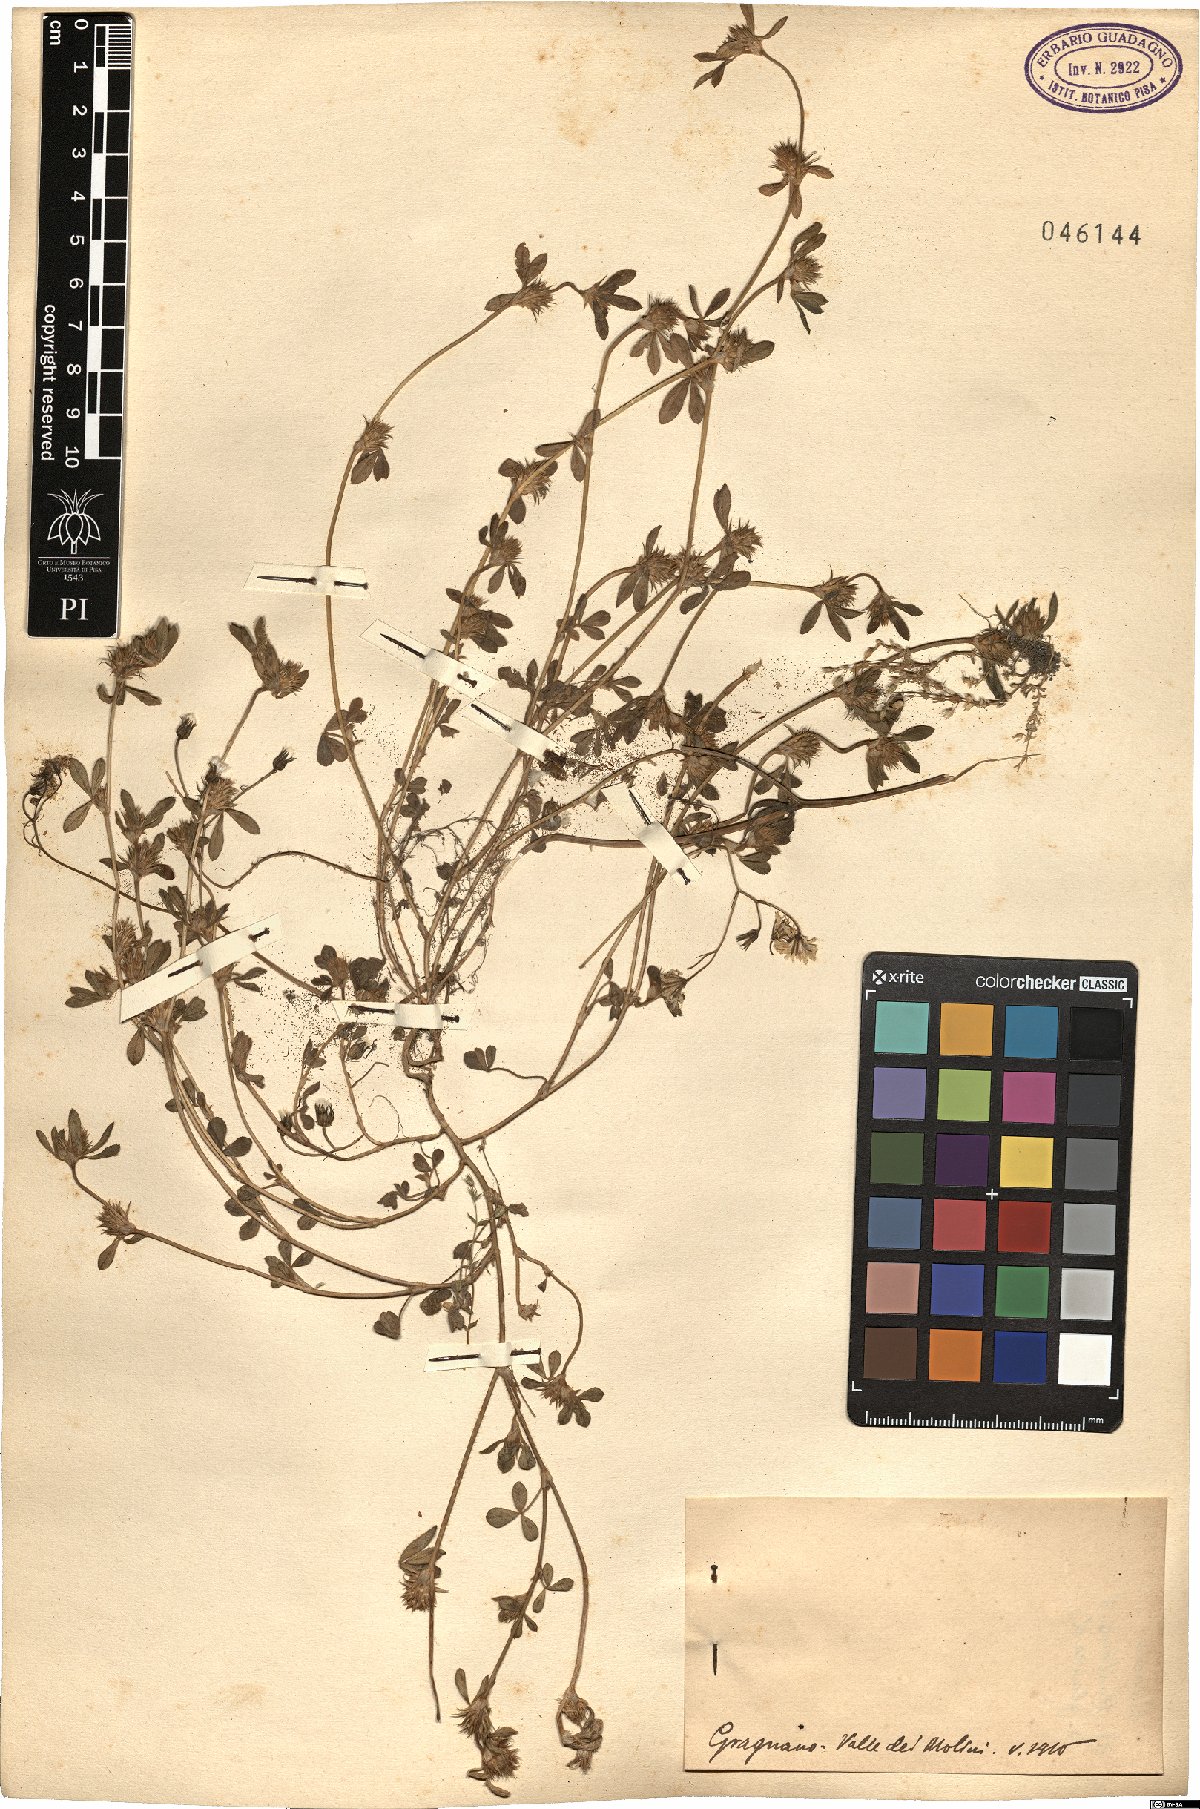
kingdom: Plantae
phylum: Tracheophyta
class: Magnoliopsida
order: Fabales
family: Fabaceae
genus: Trifolium
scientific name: Trifolium
